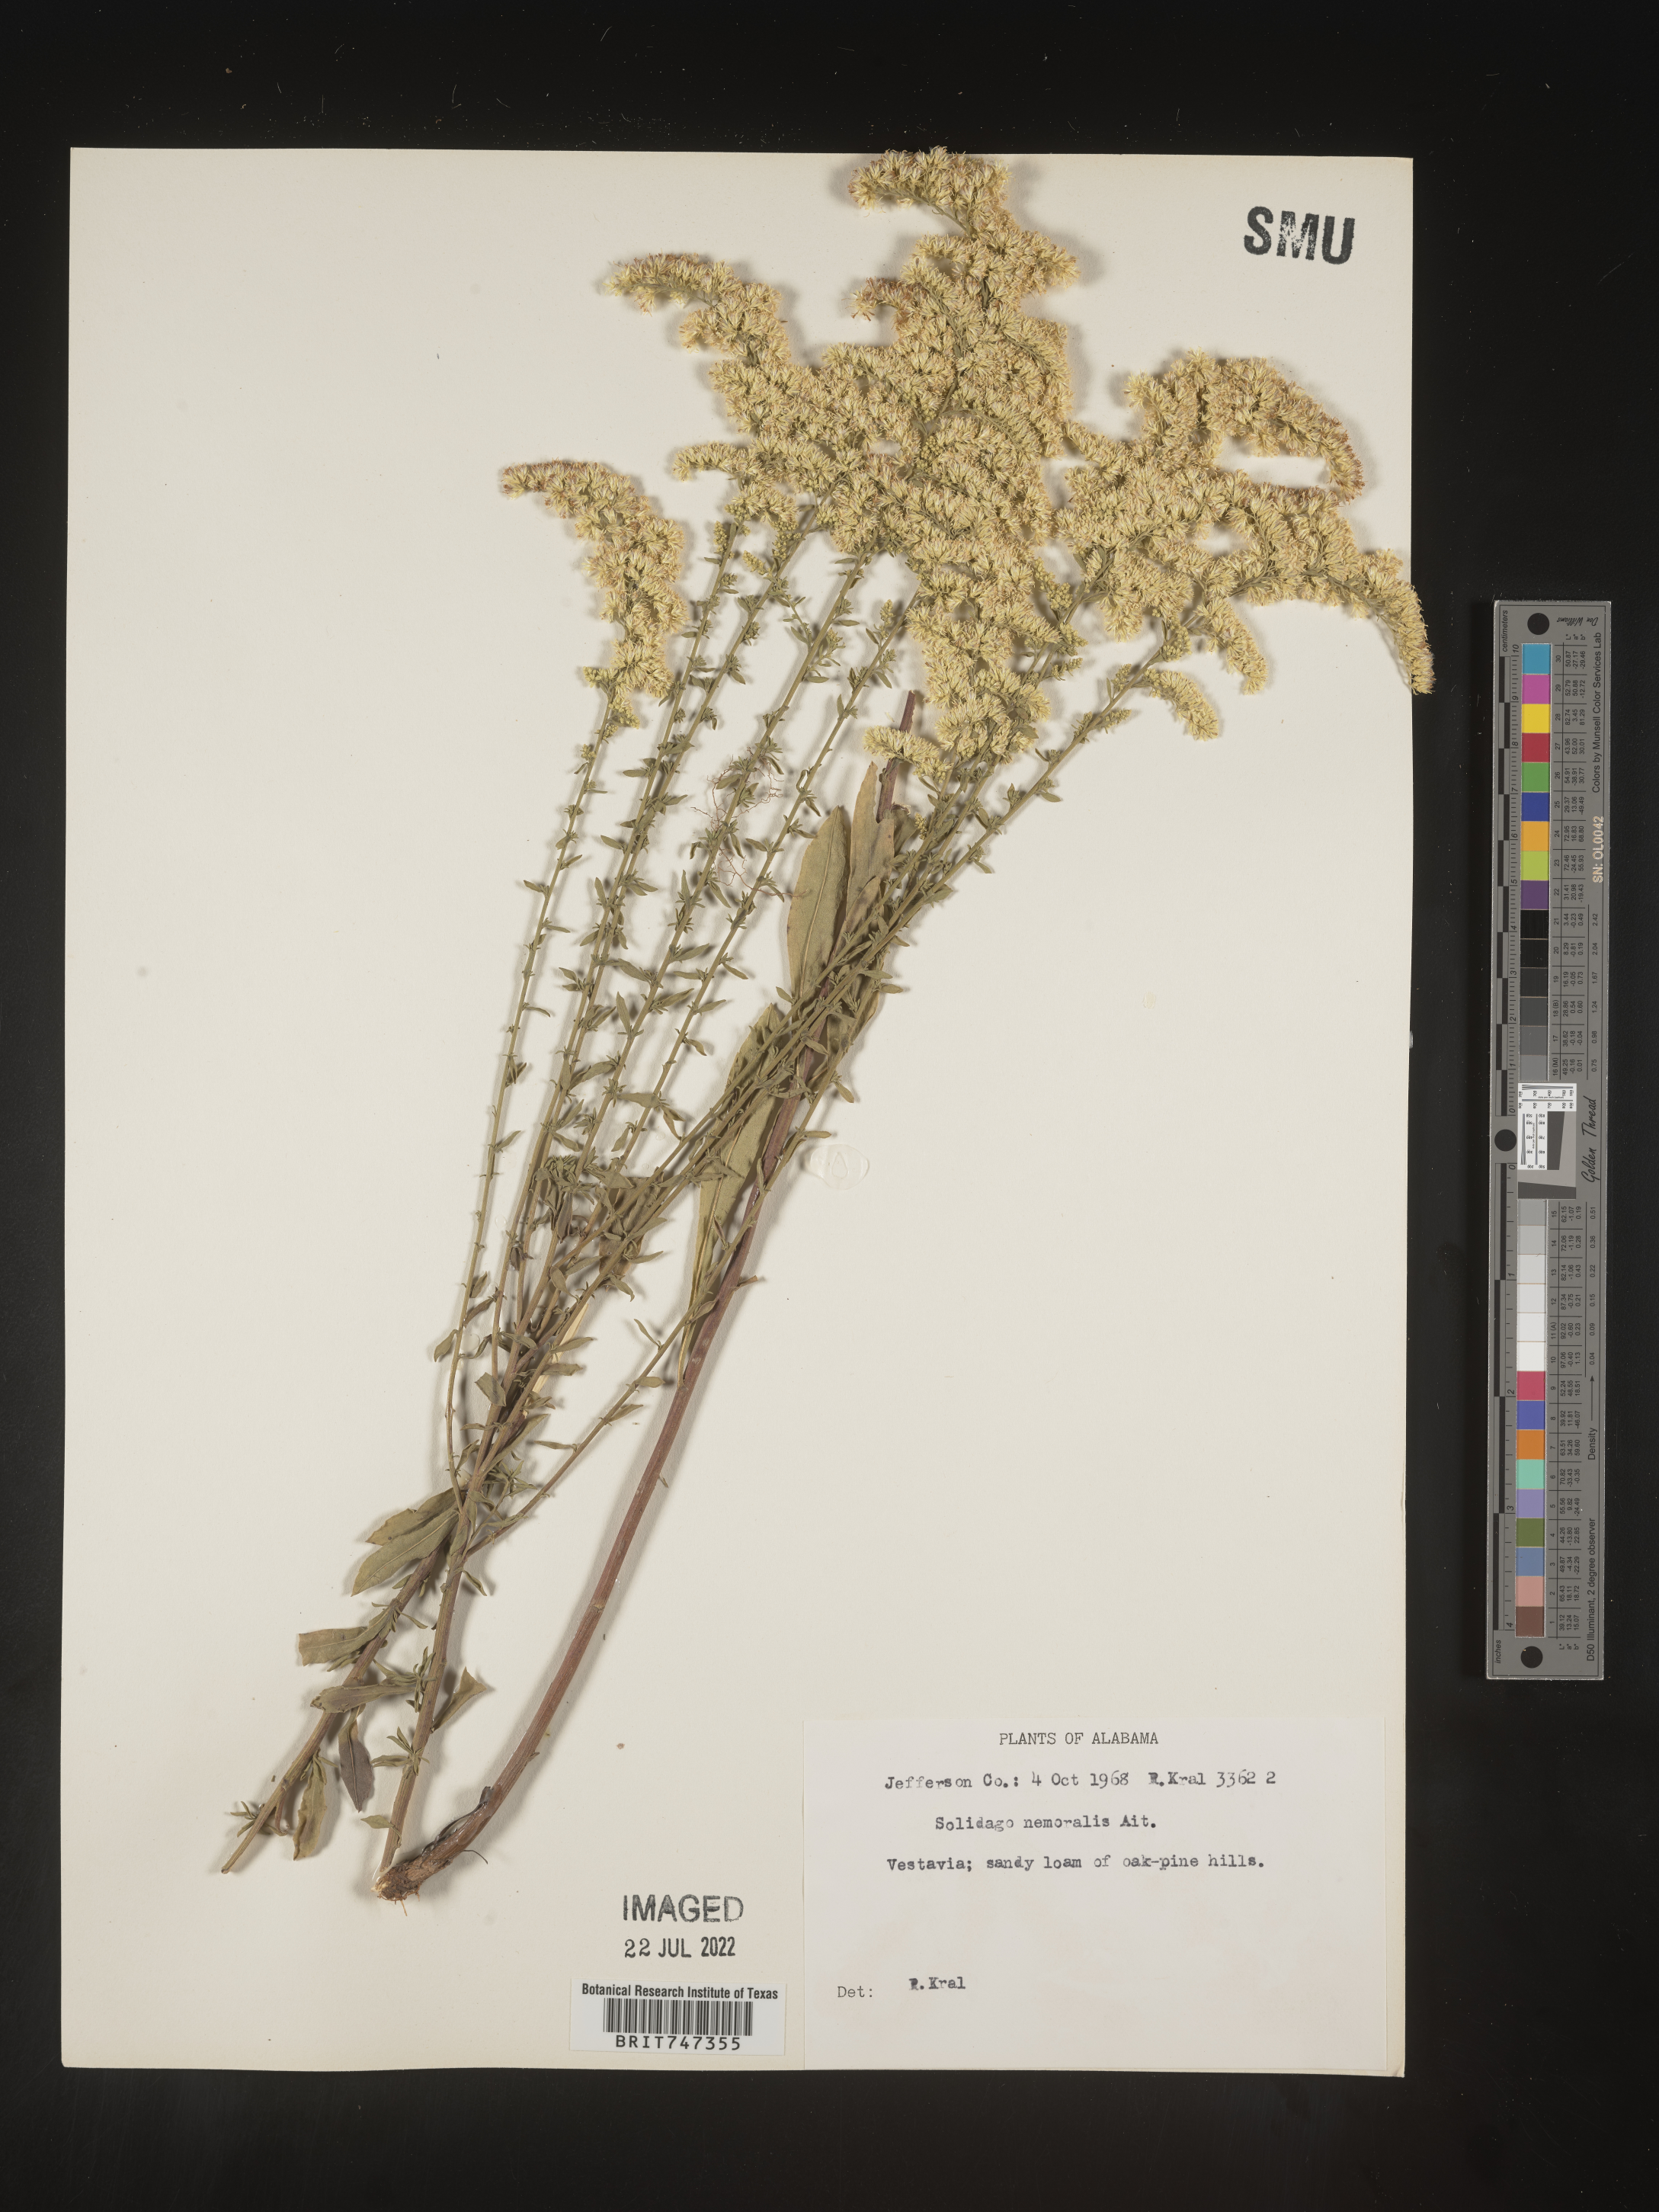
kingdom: Plantae
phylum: Tracheophyta
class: Magnoliopsida
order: Asterales
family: Asteraceae
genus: Solidago
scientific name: Solidago nemoralis
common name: Grey goldenrod
